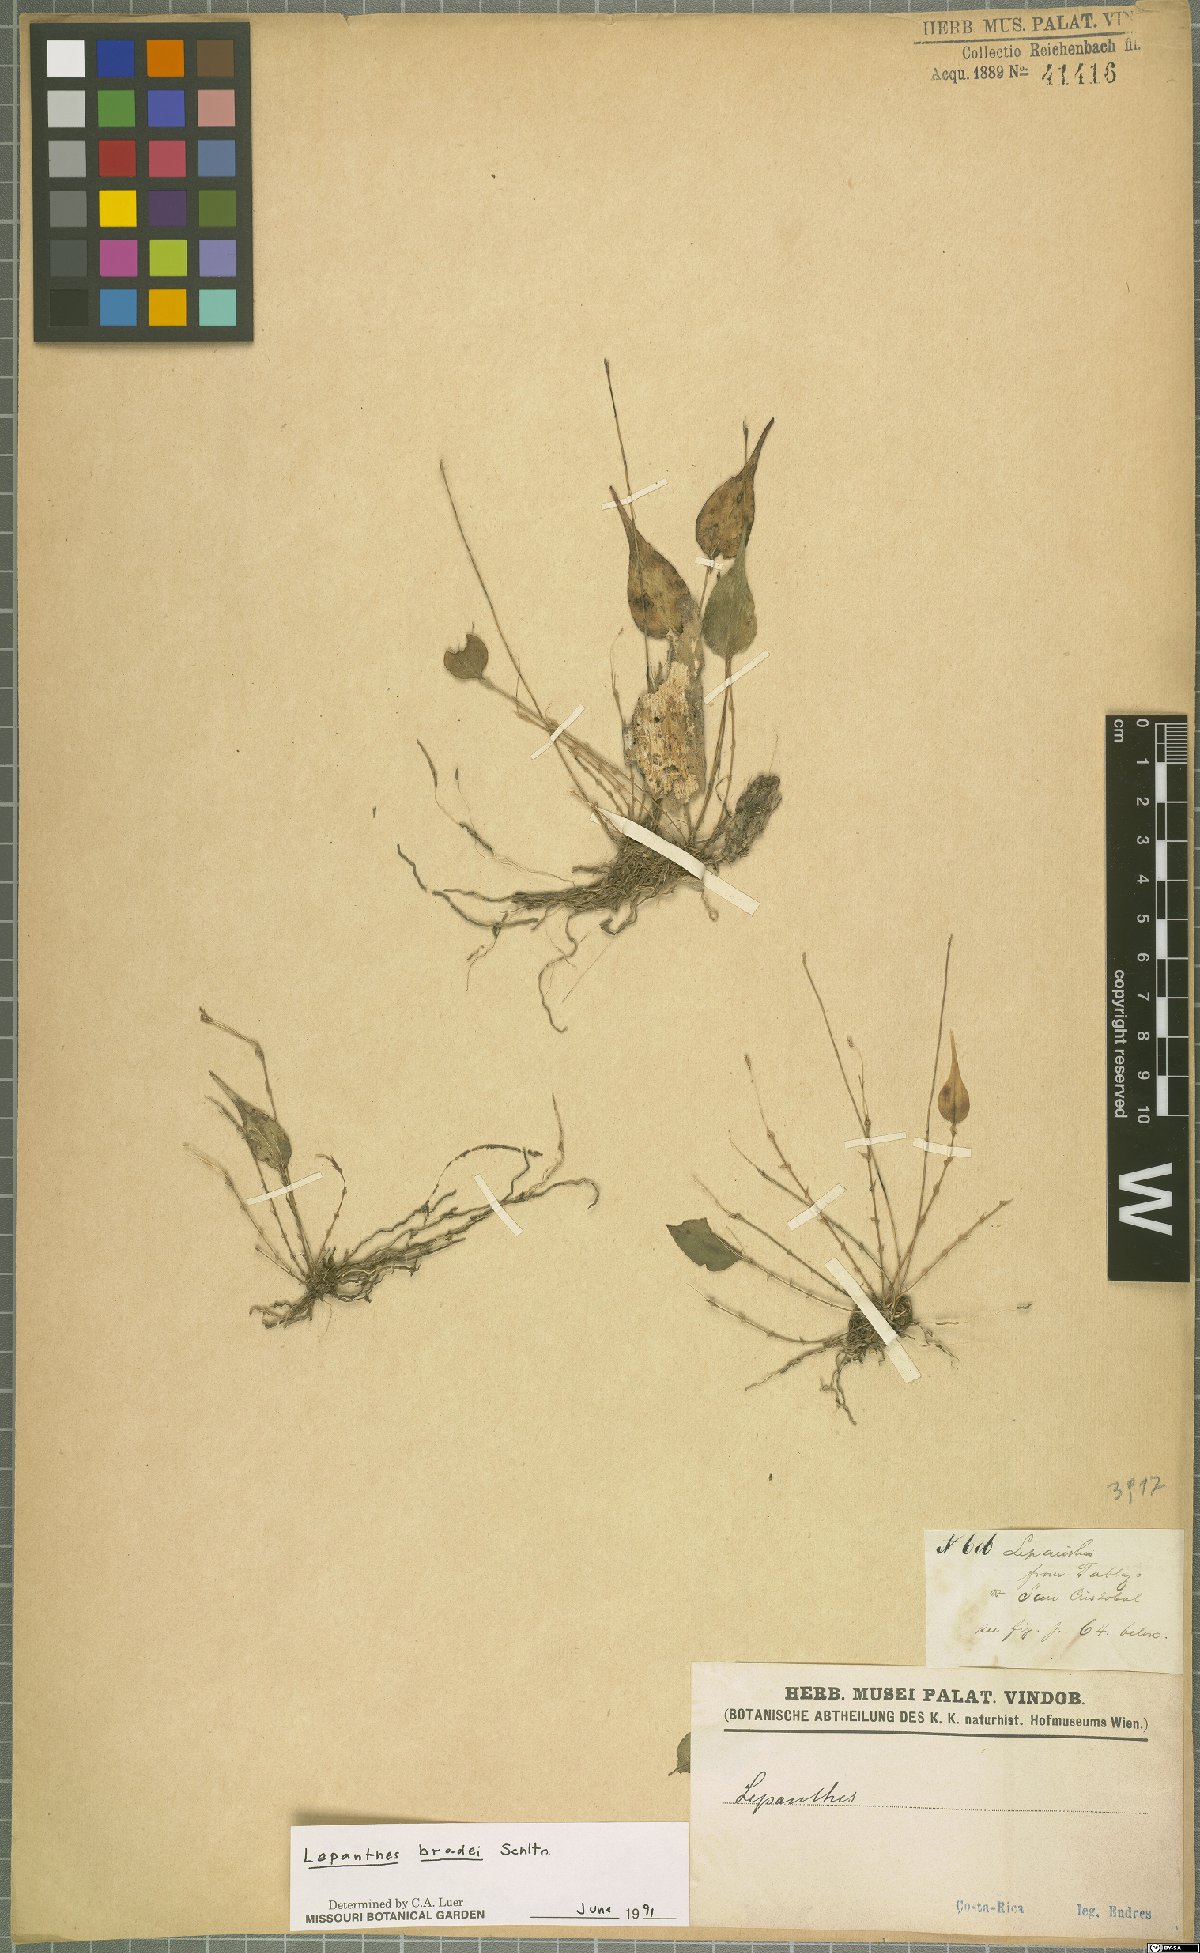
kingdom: Plantae
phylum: Tracheophyta
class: Liliopsida
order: Asparagales
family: Orchidaceae
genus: Lepanthes
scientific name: Lepanthes bradei
